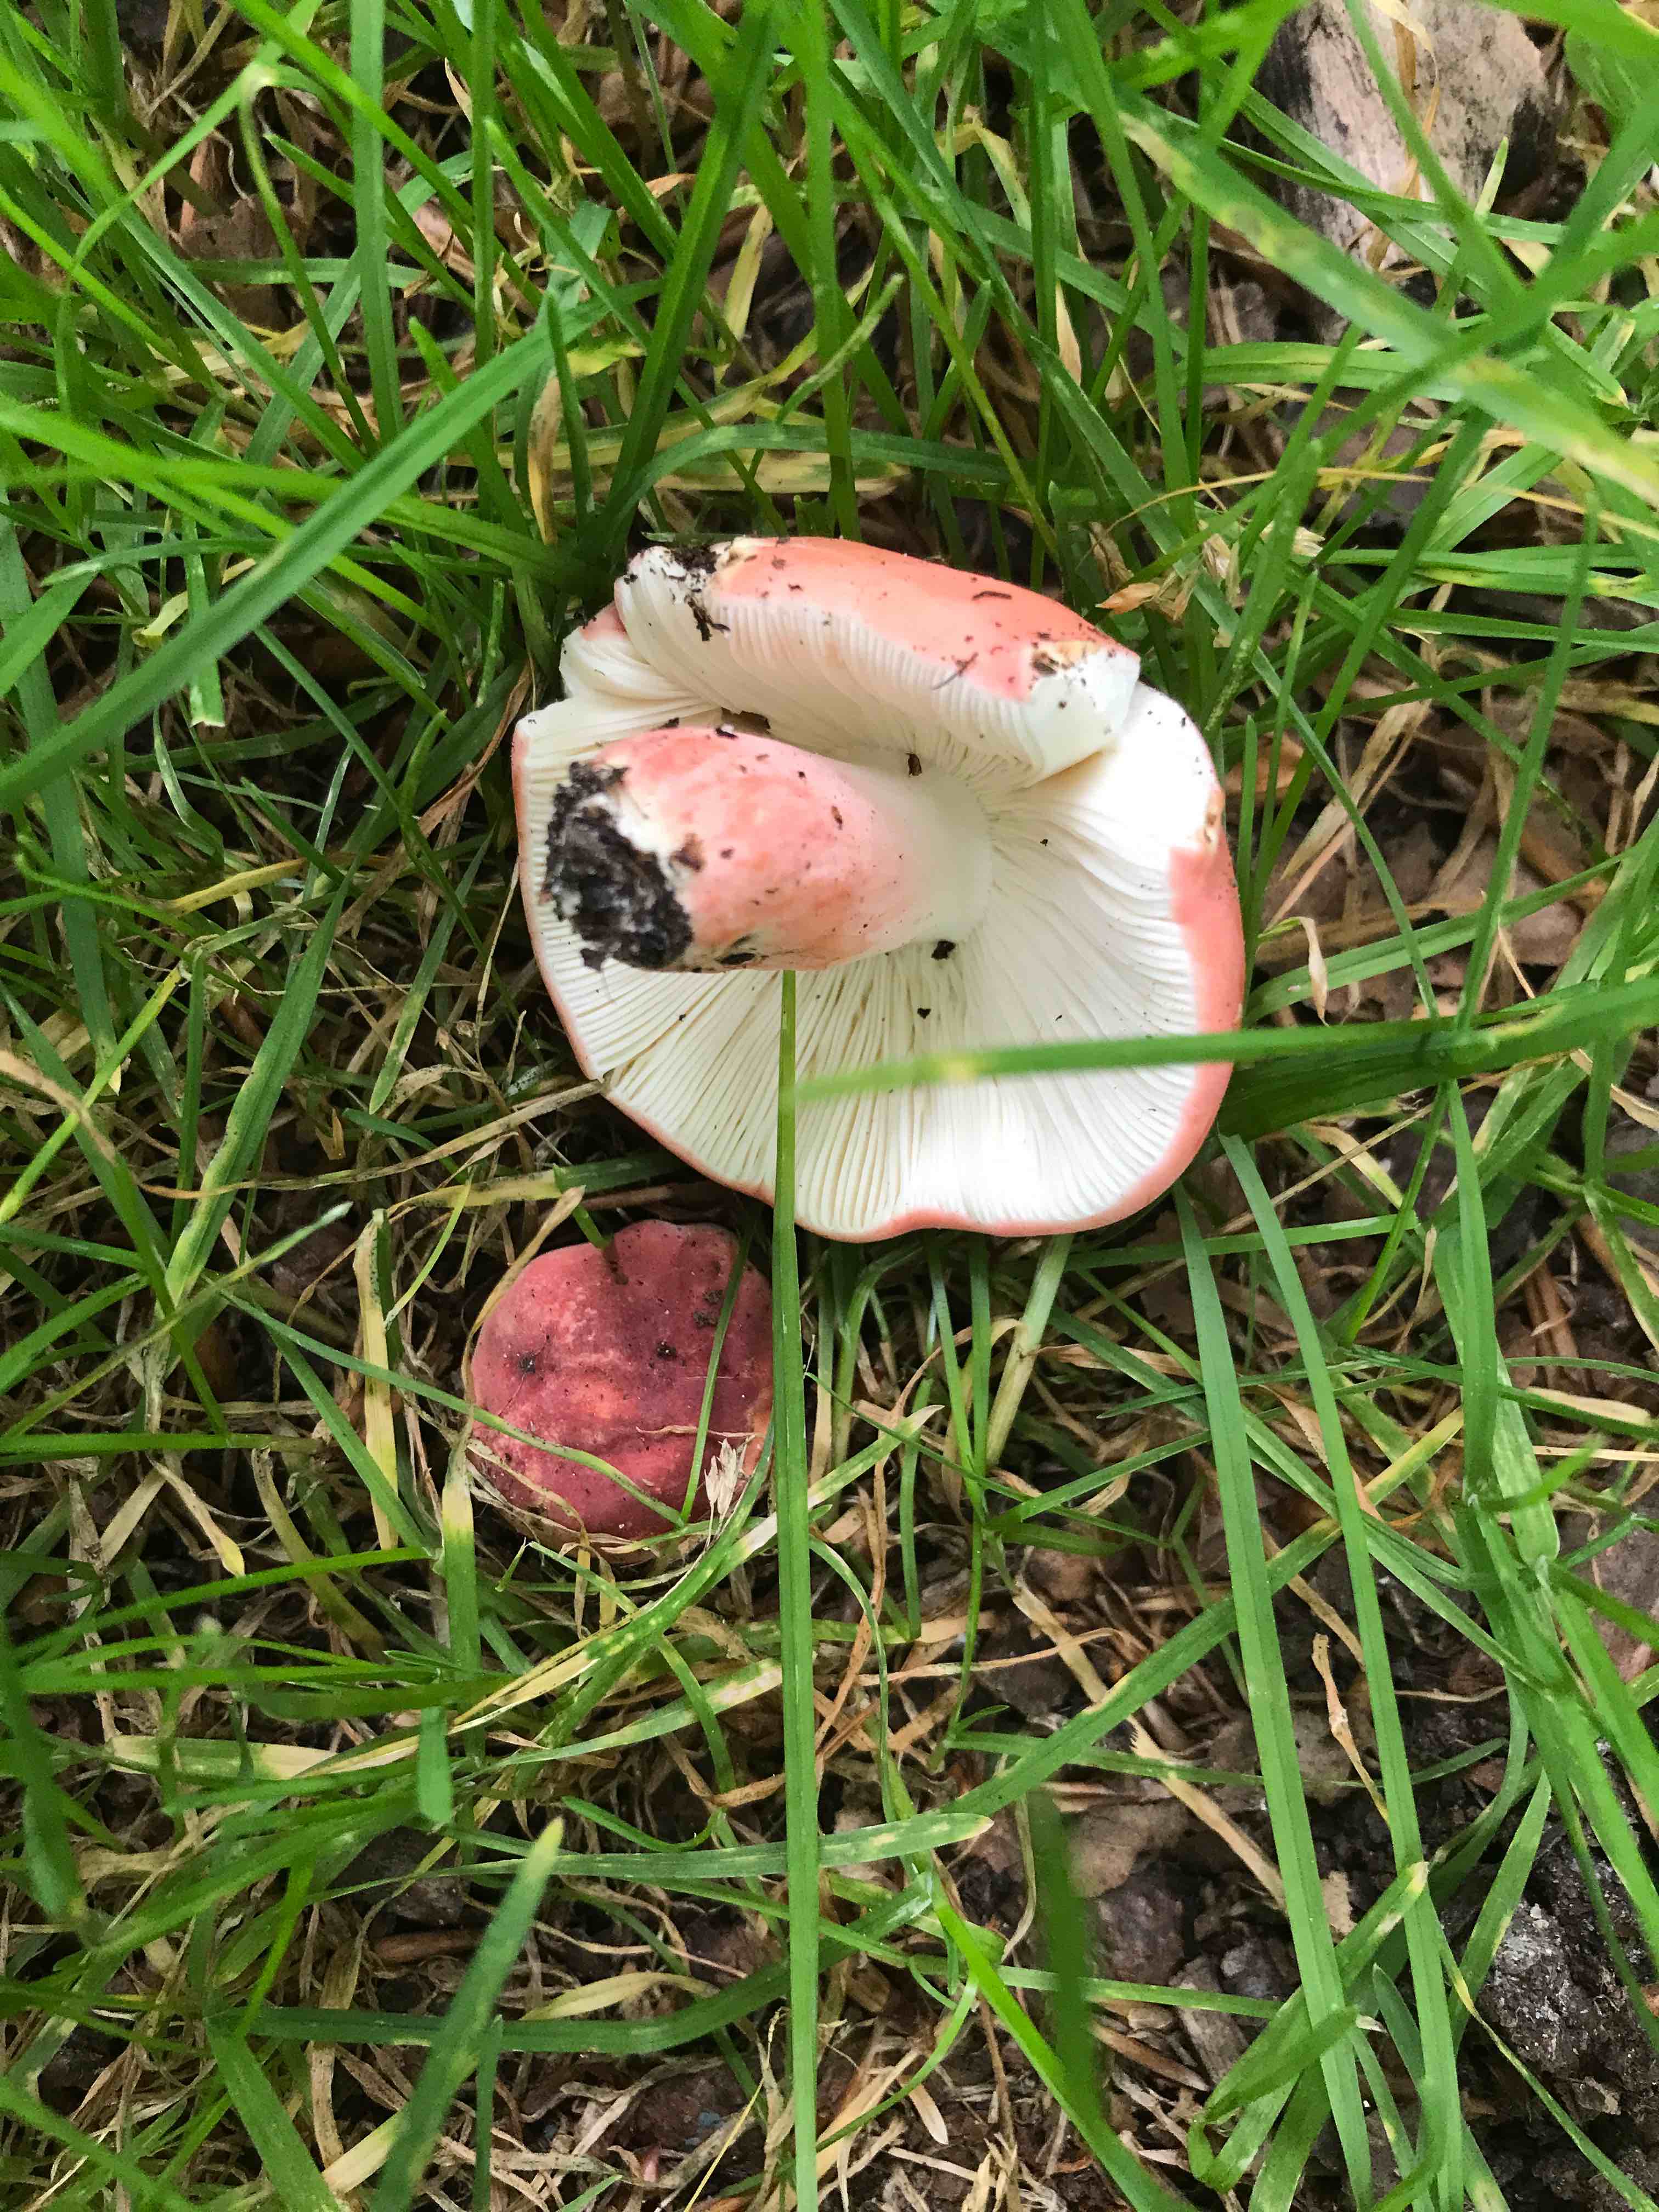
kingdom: Fungi
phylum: Basidiomycota
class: Agaricomycetes
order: Russulales
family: Russulaceae
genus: Russula
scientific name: Russula rosea
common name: fastkødet skørhat
